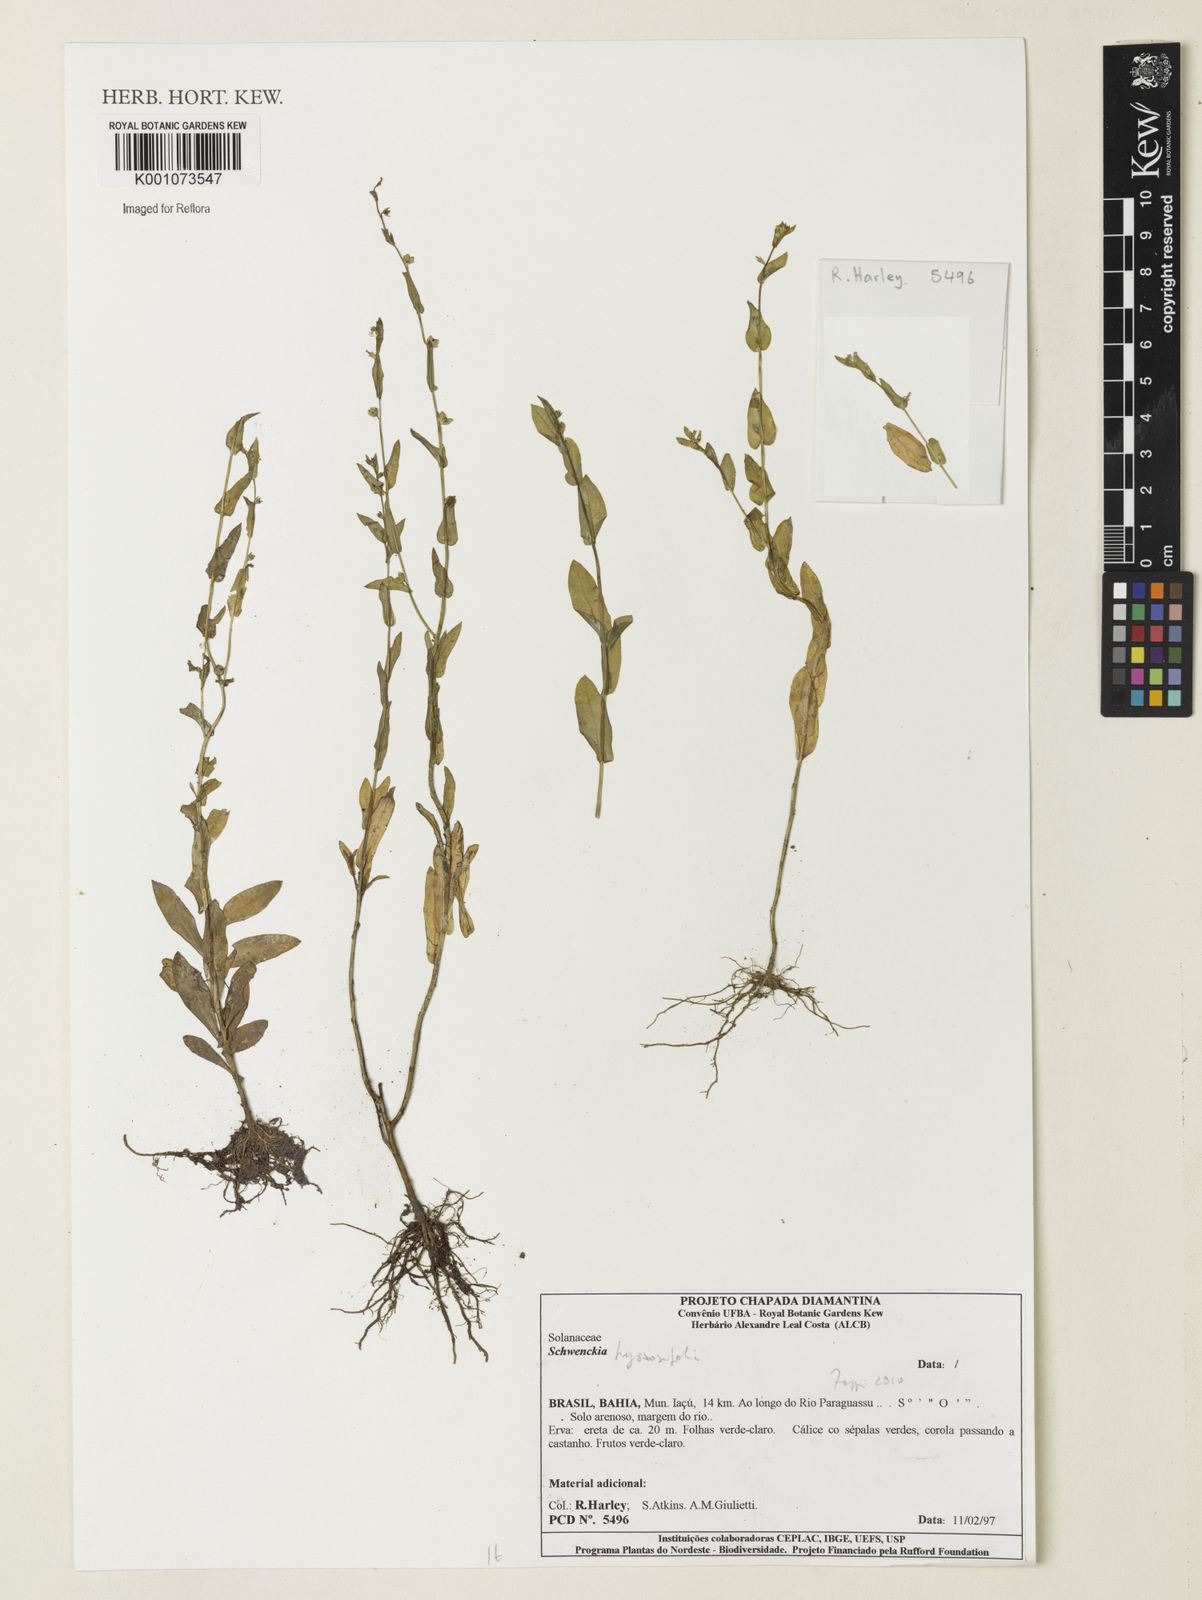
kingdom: Plantae
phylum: Tracheophyta
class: Magnoliopsida
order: Solanales
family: Solanaceae
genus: Schwenckia
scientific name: Schwenckia hyssopifolia
